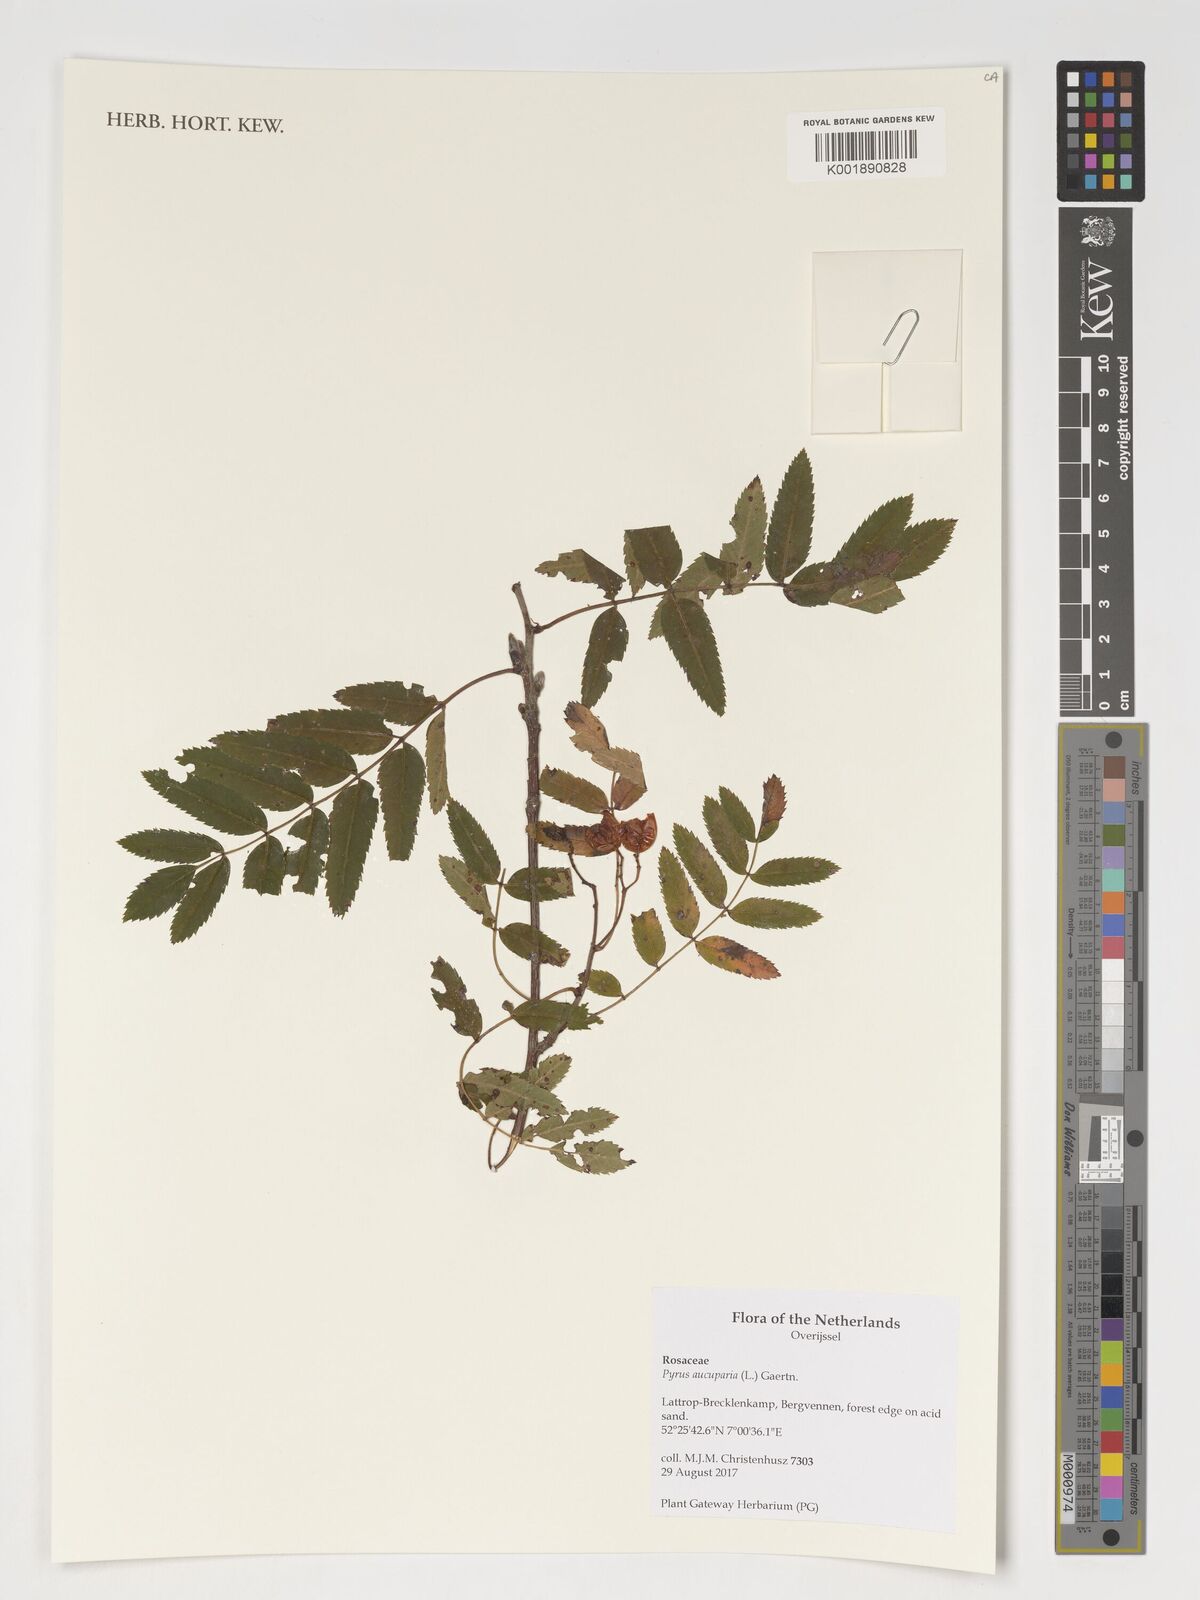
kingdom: Plantae
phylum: Tracheophyta
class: Magnoliopsida
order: Rosales
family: Rosaceae
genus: Sorbus
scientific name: Sorbus aucuparia
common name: Rowan
